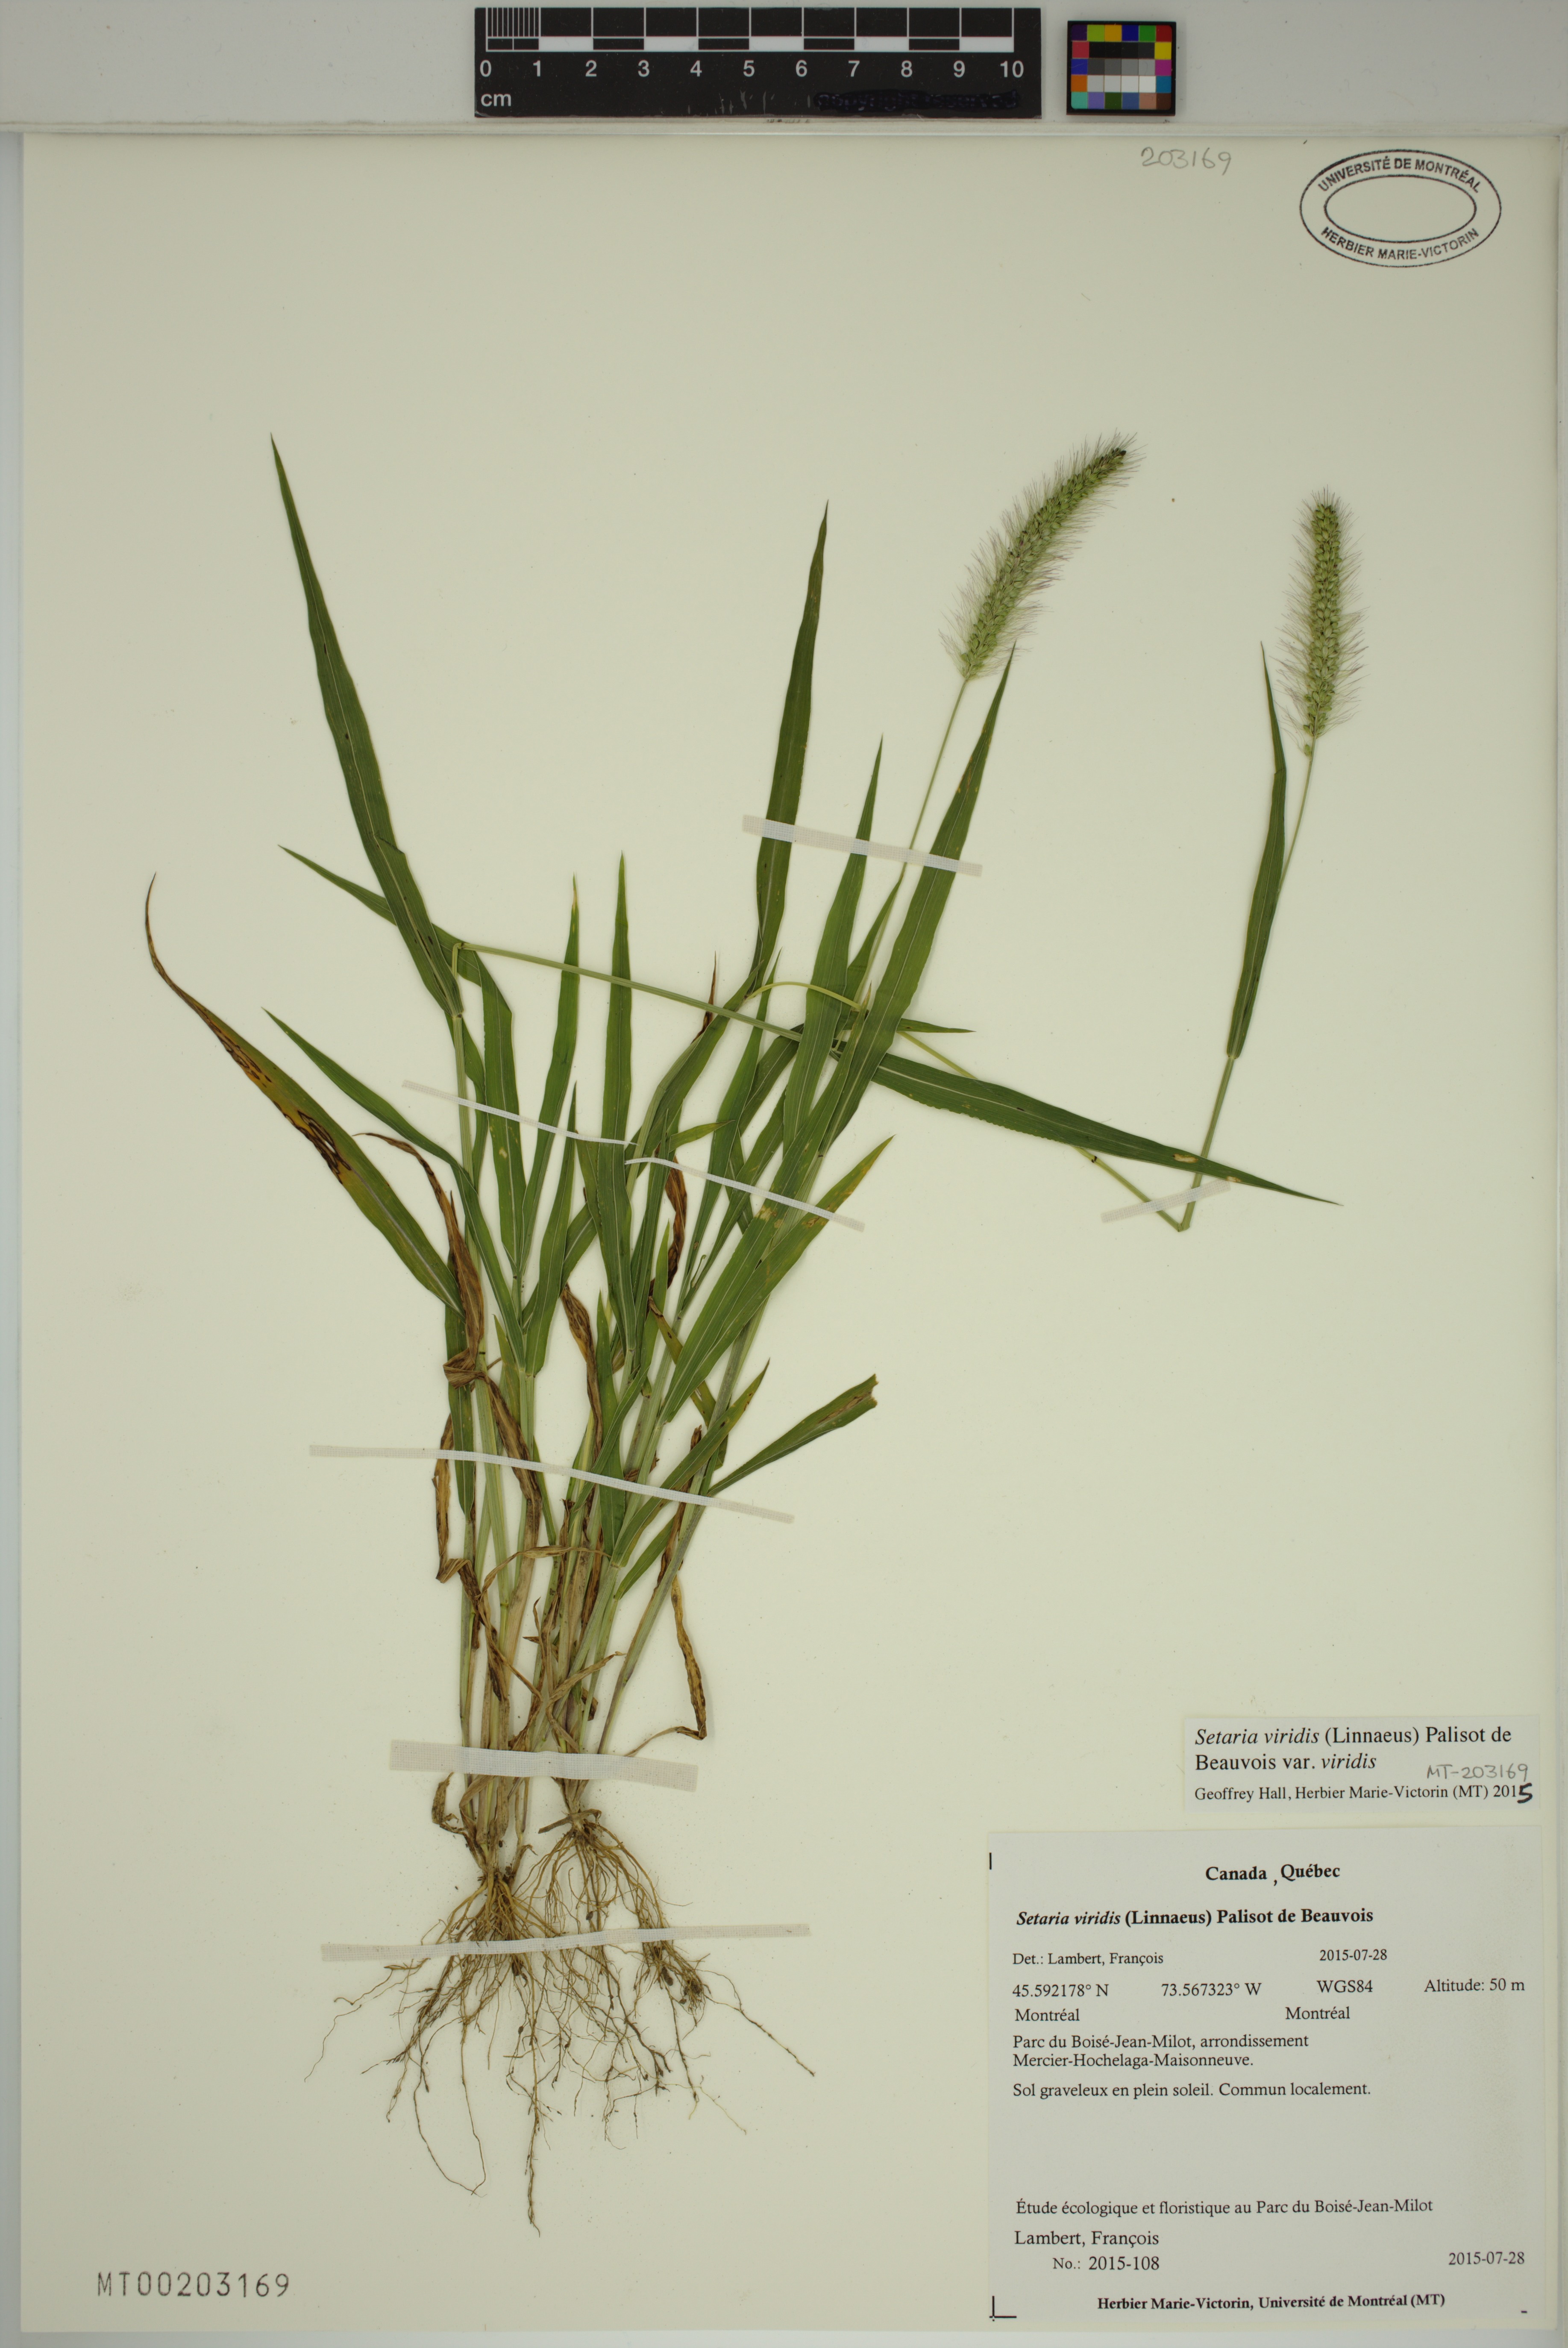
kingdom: Plantae
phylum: Tracheophyta
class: Liliopsida
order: Poales
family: Poaceae
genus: Setaria
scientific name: Setaria viridis
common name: Green bristlegrass
